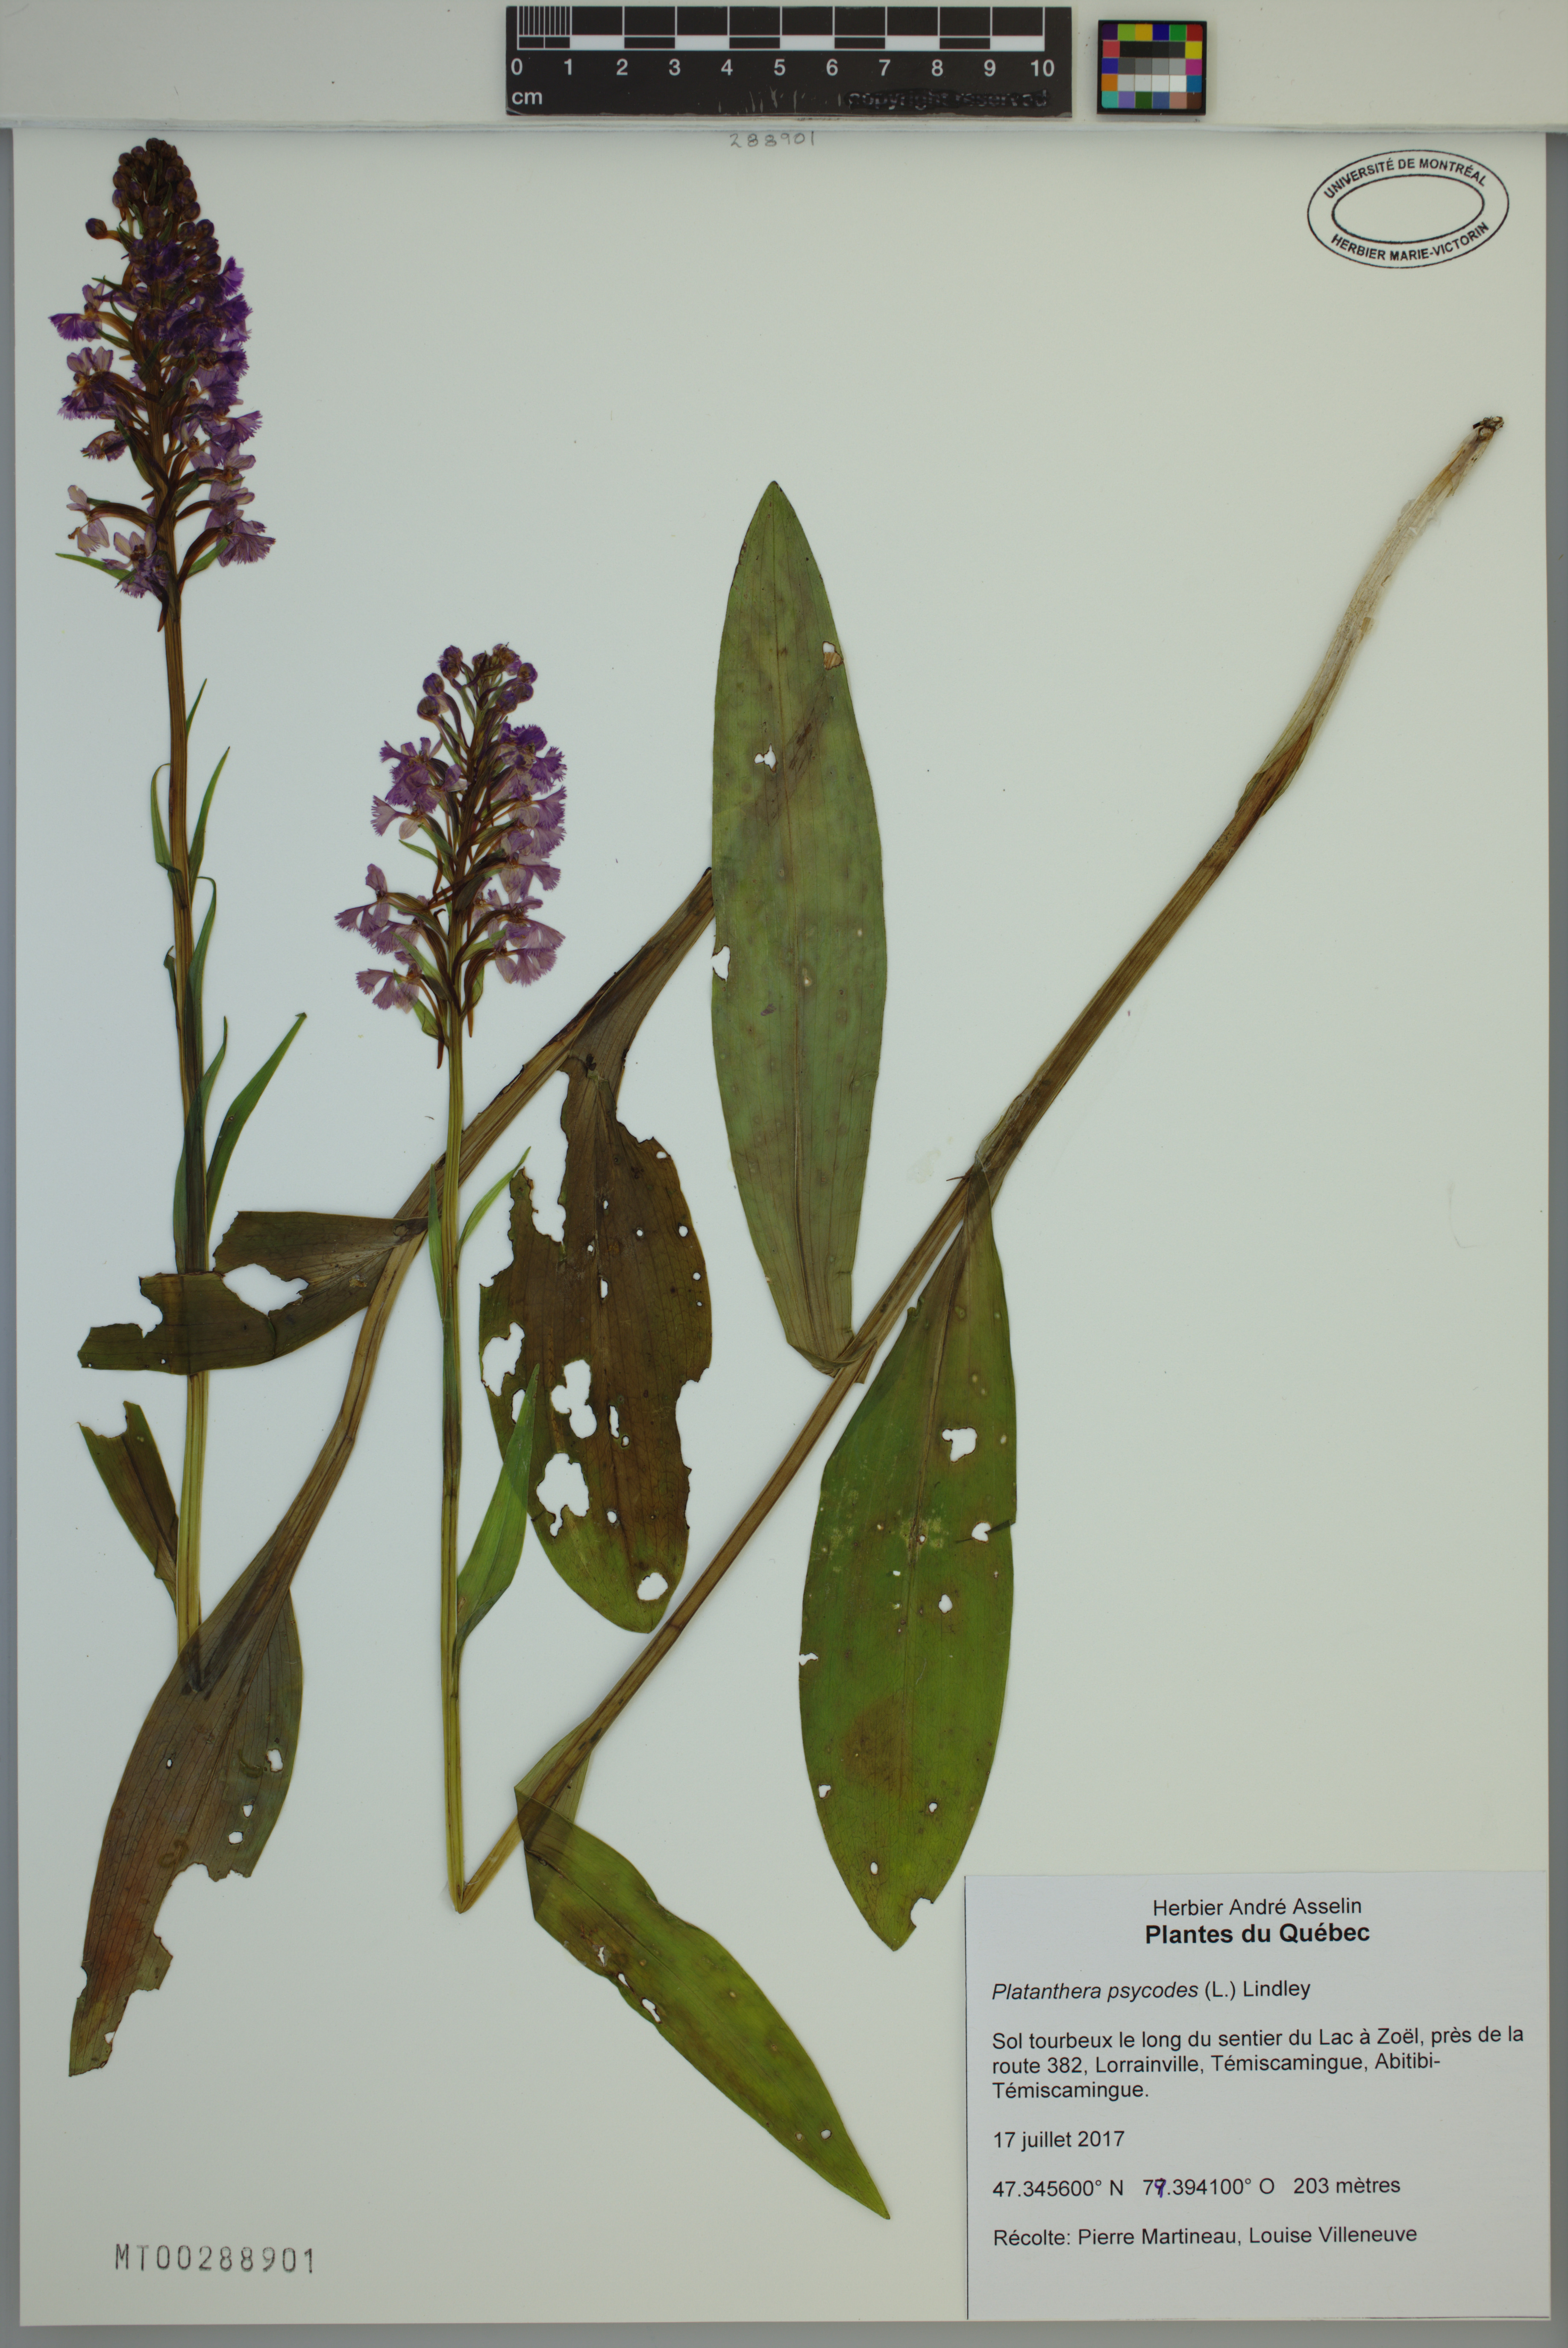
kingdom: Plantae
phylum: Tracheophyta
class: Liliopsida
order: Asparagales
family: Orchidaceae
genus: Platanthera
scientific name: Platanthera psycodes
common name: Lesser purple fringed orchid
